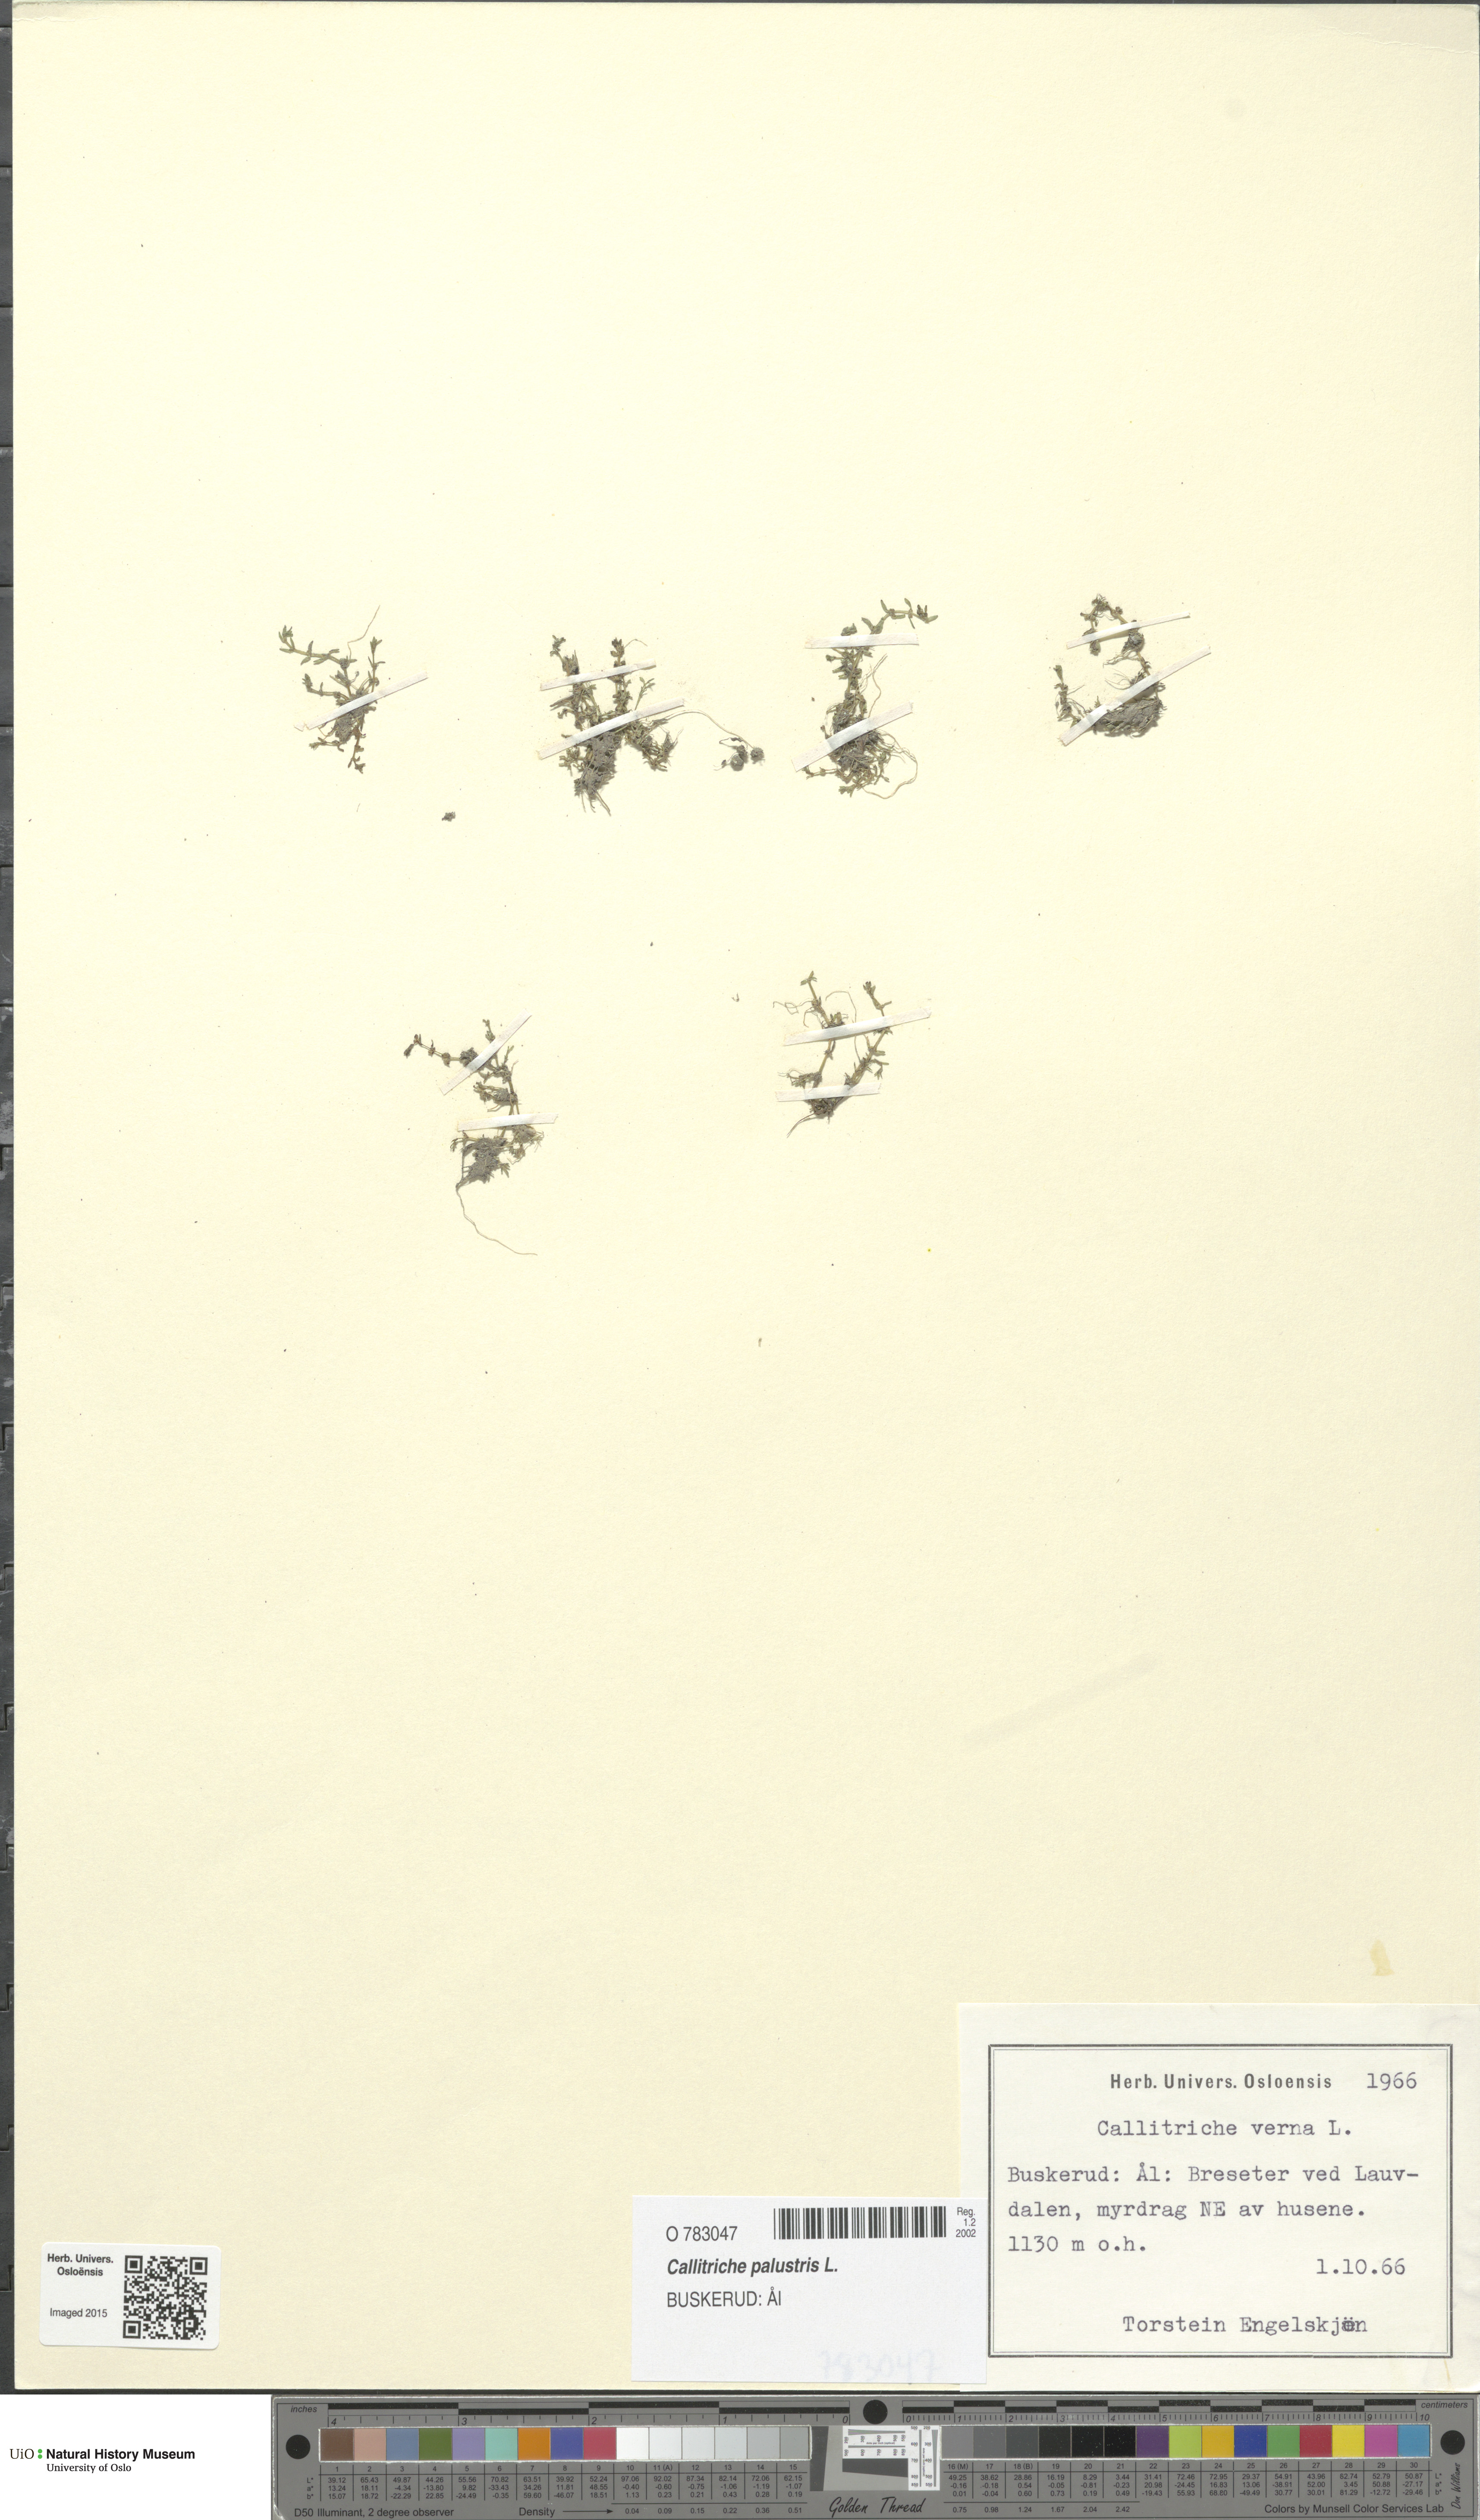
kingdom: Plantae
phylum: Tracheophyta
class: Magnoliopsida
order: Lamiales
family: Plantaginaceae
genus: Callitriche
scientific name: Callitriche palustris
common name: Spring water-starwort
